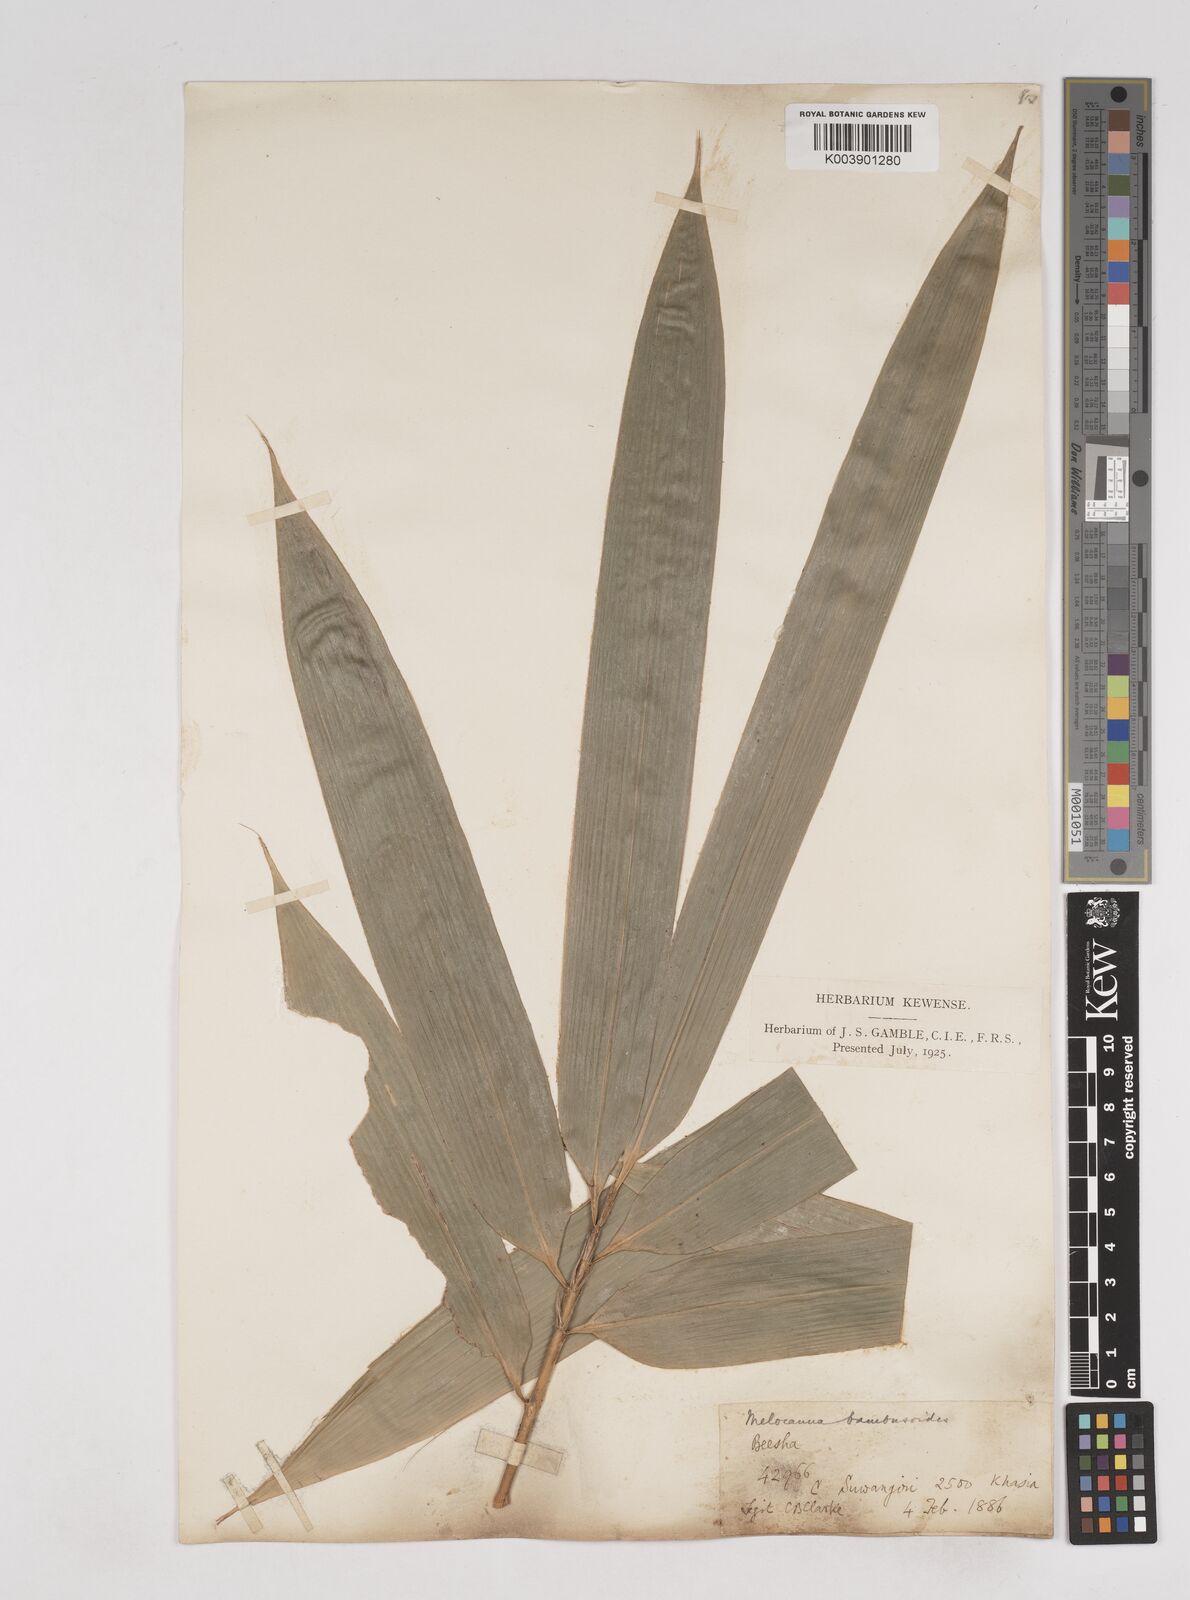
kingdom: Plantae
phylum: Tracheophyta
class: Liliopsida
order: Poales
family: Poaceae
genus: Melocanna
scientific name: Melocanna baccifera
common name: Berry bamboo
